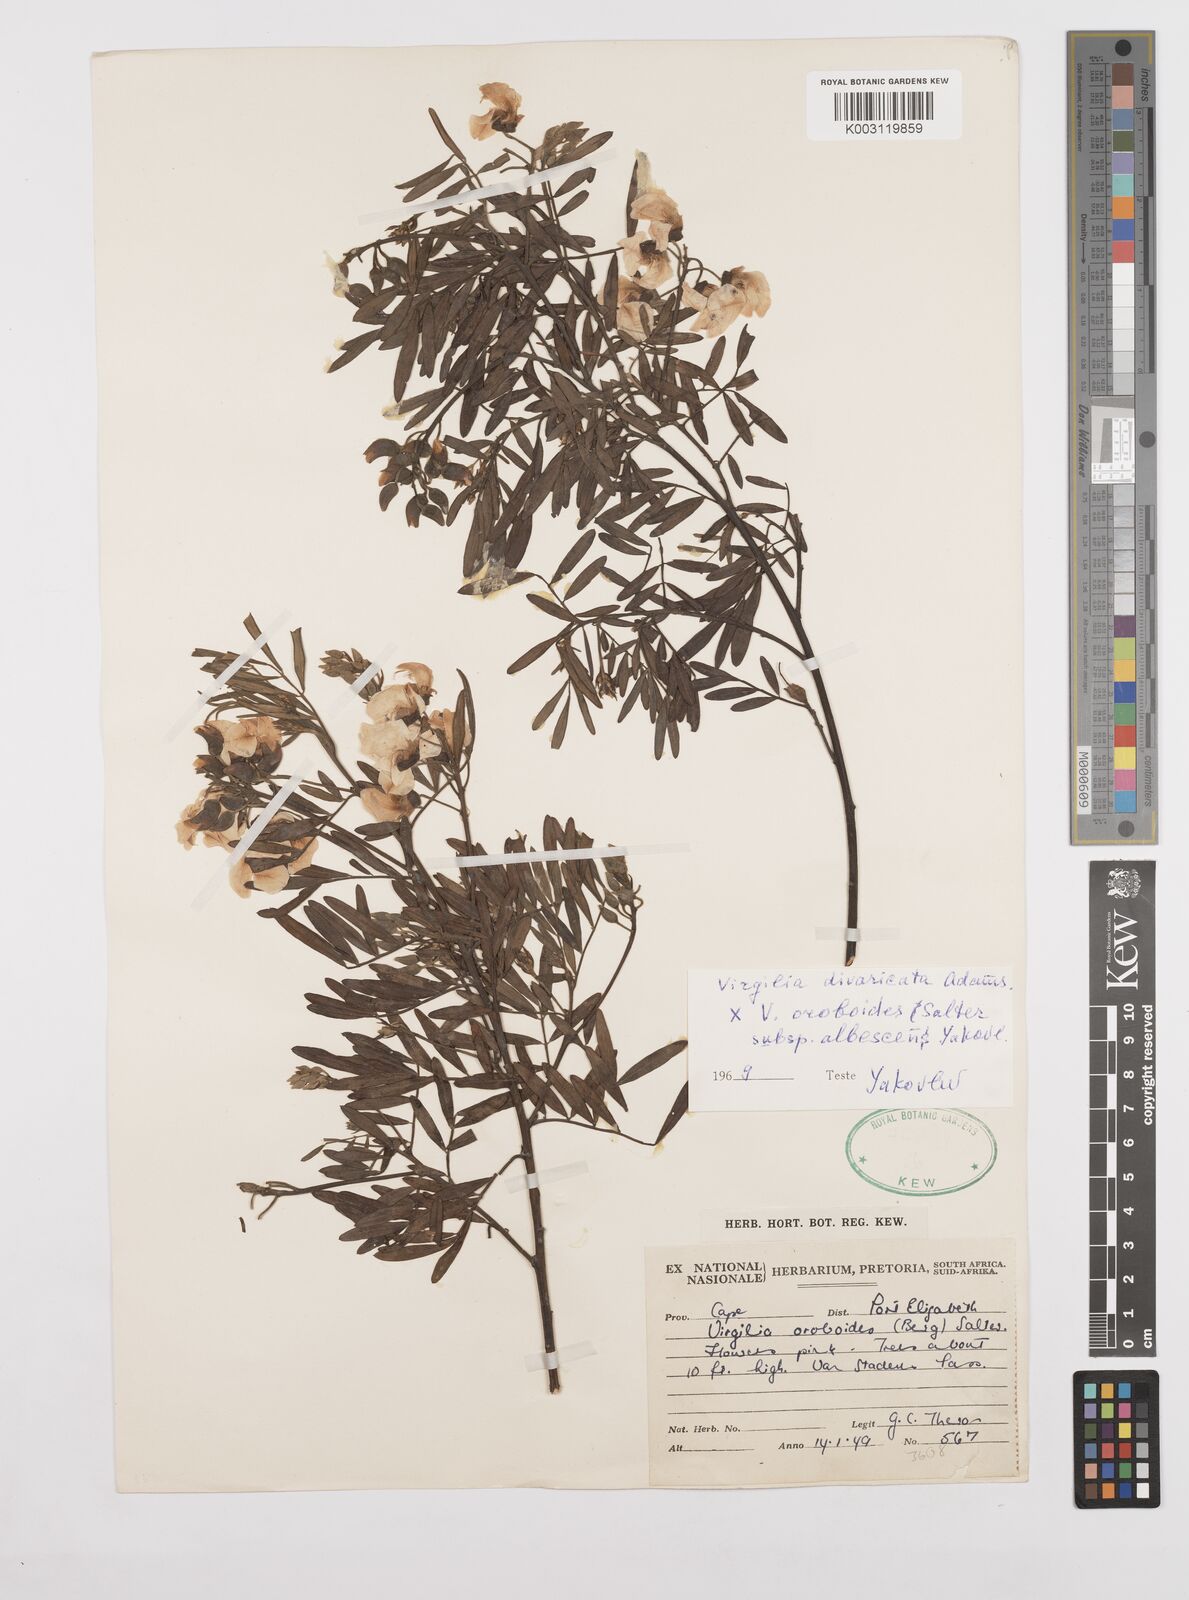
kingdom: Plantae
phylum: Tracheophyta
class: Magnoliopsida
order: Fabales
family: Fabaceae
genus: Virgilia
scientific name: Virgilia divaricata
